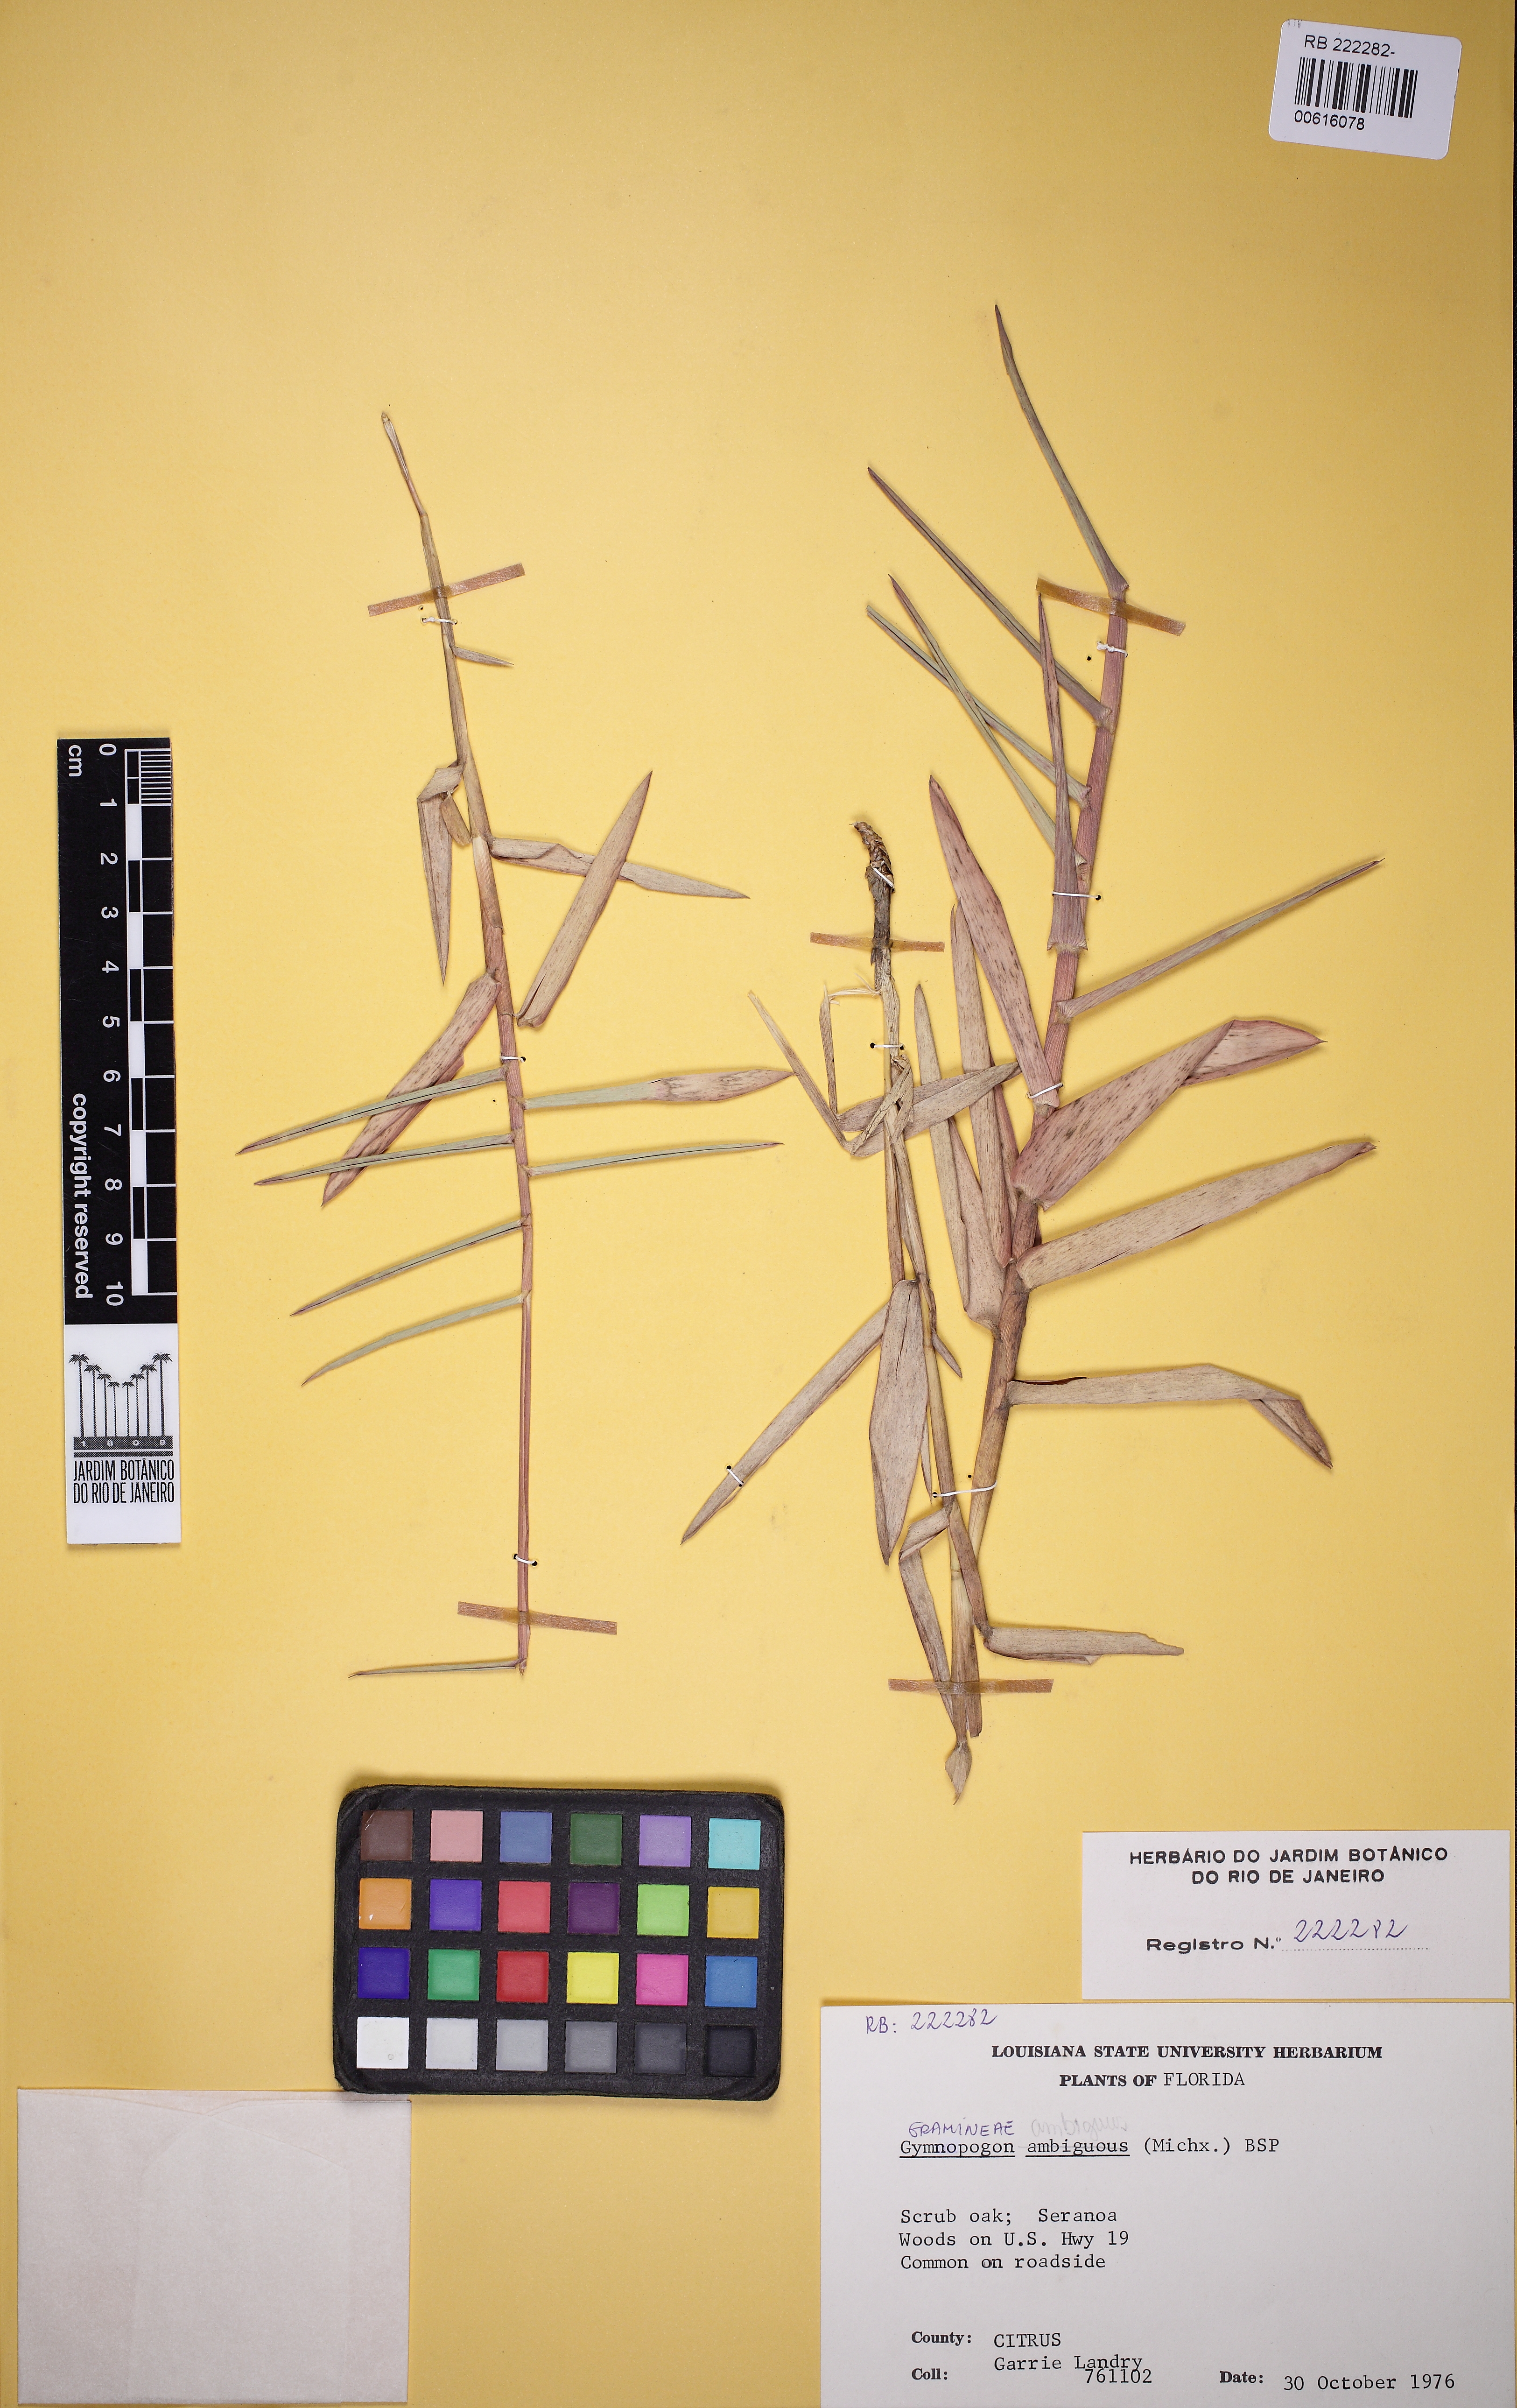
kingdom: Plantae
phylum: Tracheophyta
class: Liliopsida
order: Poales
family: Poaceae
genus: Gymnopogon
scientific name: Gymnopogon ambiguus
